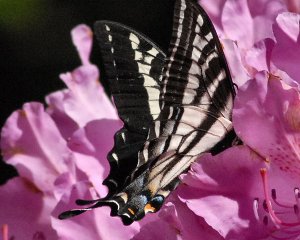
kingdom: Animalia
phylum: Arthropoda
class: Insecta
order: Lepidoptera
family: Papilionidae
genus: Pterourus
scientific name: Pterourus eurymedon
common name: Pale Swallowtail
